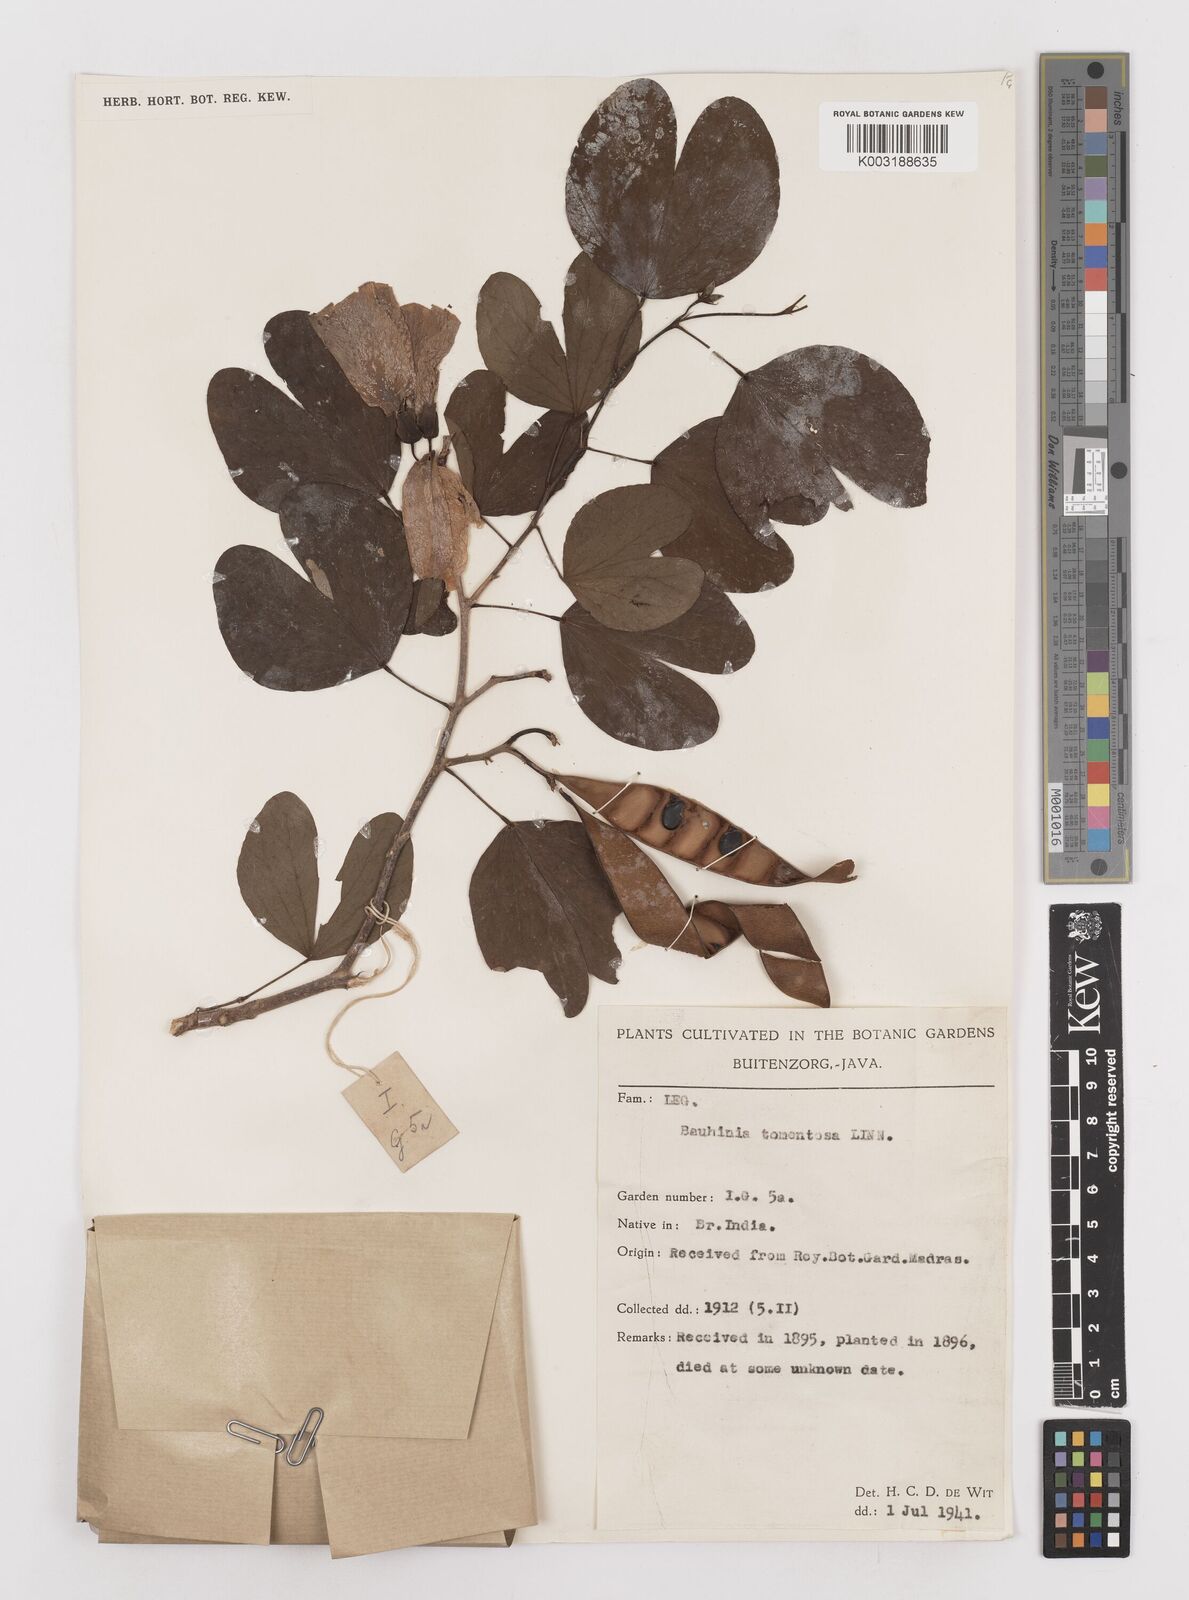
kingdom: Plantae
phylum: Tracheophyta
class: Magnoliopsida
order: Fabales
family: Fabaceae
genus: Bauhinia
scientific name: Bauhinia tomentosa
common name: Bell bauhinia
